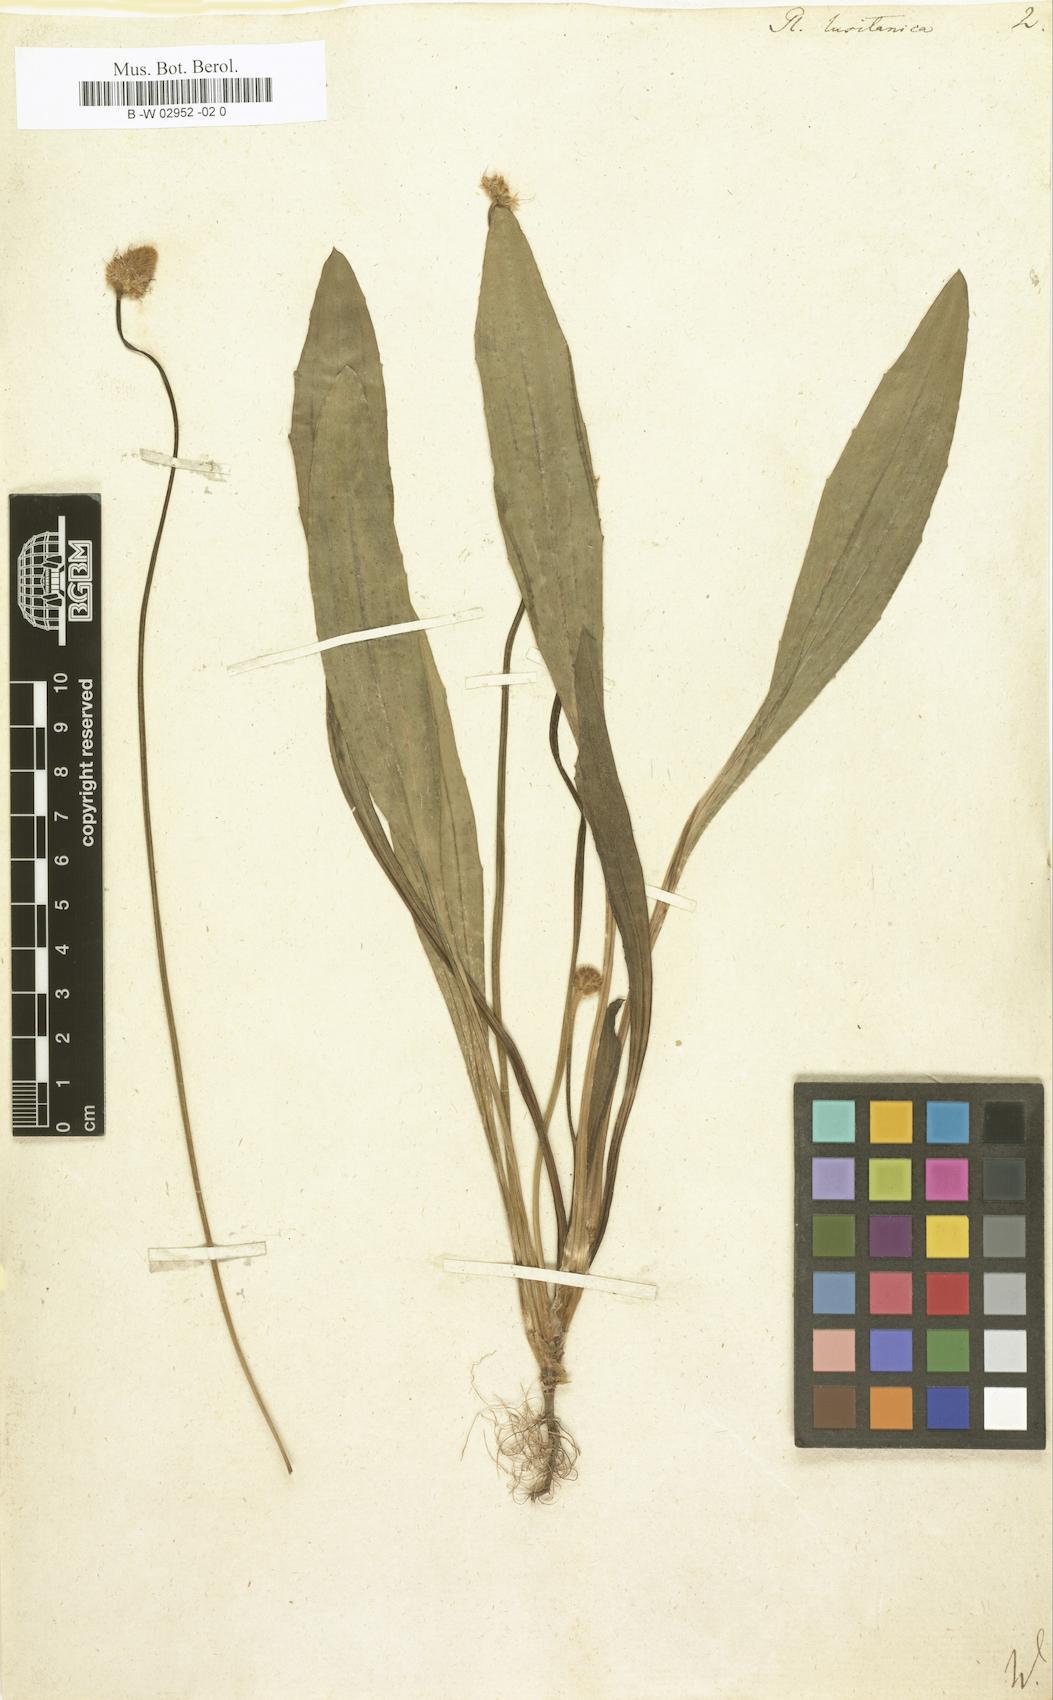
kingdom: Plantae
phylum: Tracheophyta
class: Magnoliopsida
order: Lamiales
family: Plantaginaceae
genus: Plantago
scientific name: Plantago lagopus
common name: Hare-foot plantain
